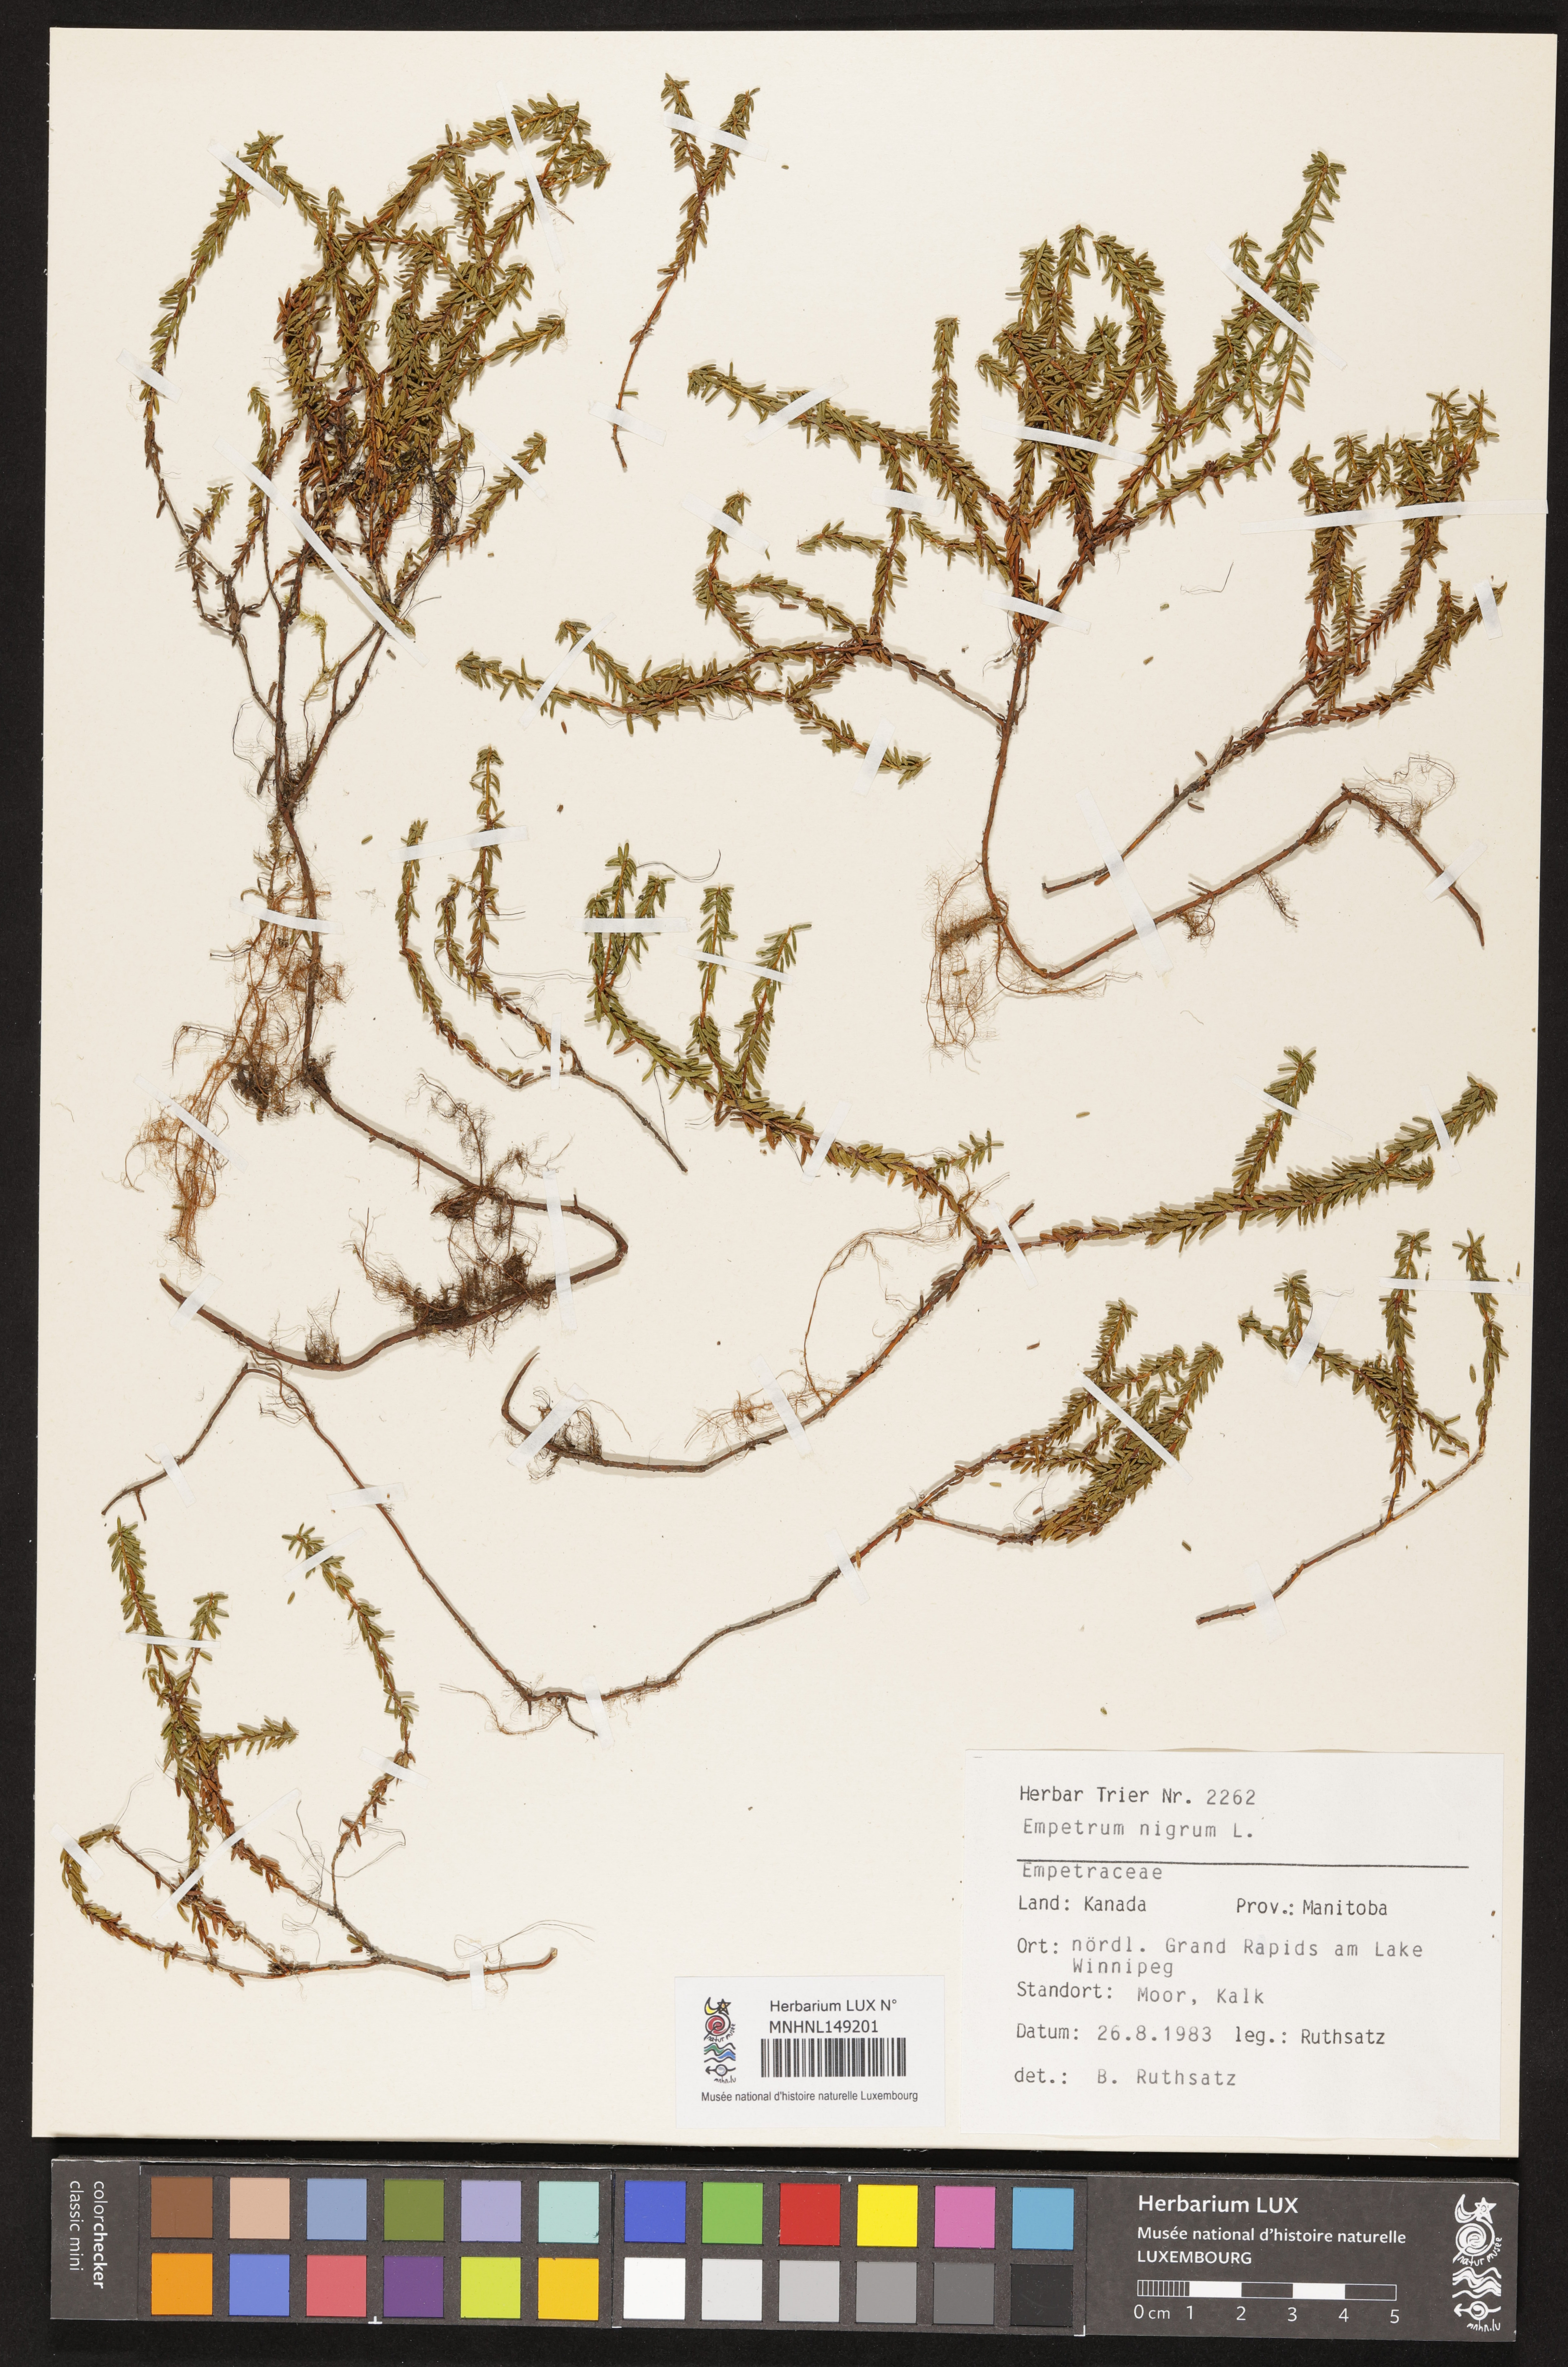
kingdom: Plantae
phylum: Tracheophyta
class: Magnoliopsida
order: Ericales
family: Ericaceae
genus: Empetrum
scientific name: Empetrum nigrum
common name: Black crowberry
